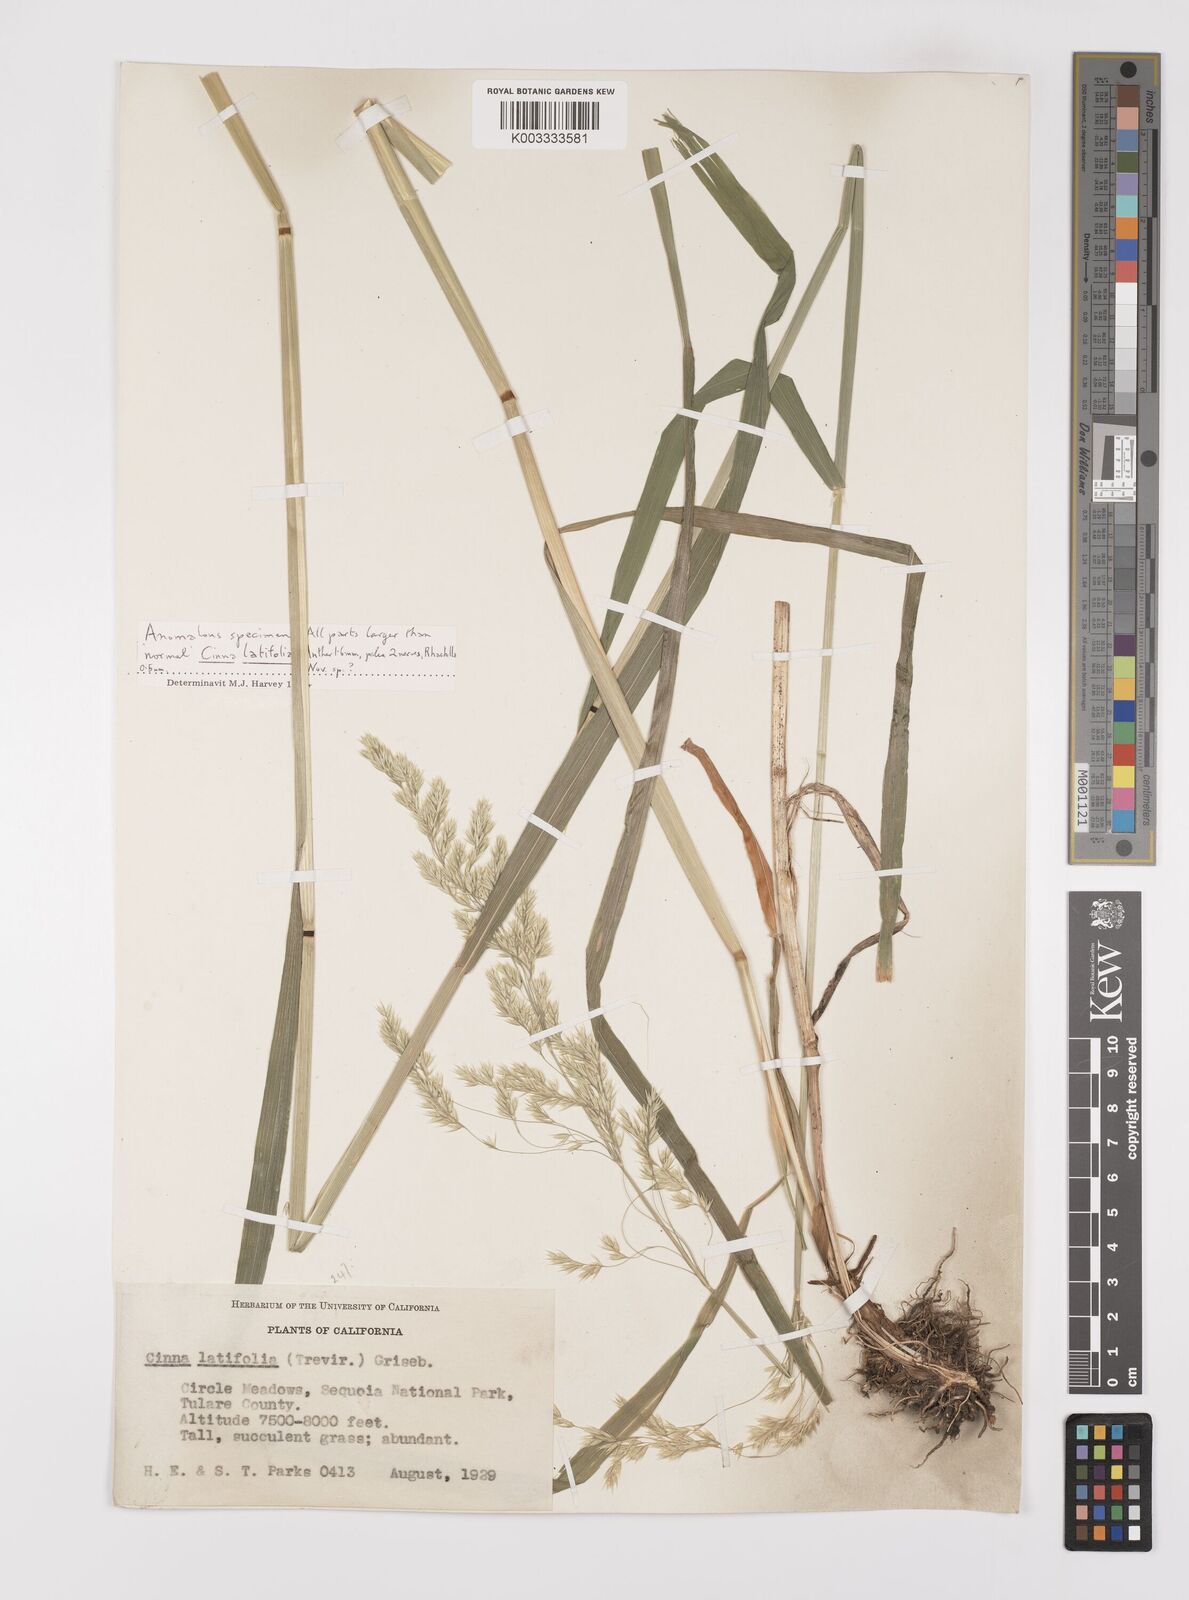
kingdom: Plantae
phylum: Tracheophyta
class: Liliopsida
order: Poales
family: Poaceae
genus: Cinna
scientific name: Cinna latifolia
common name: Drooping woodreed
